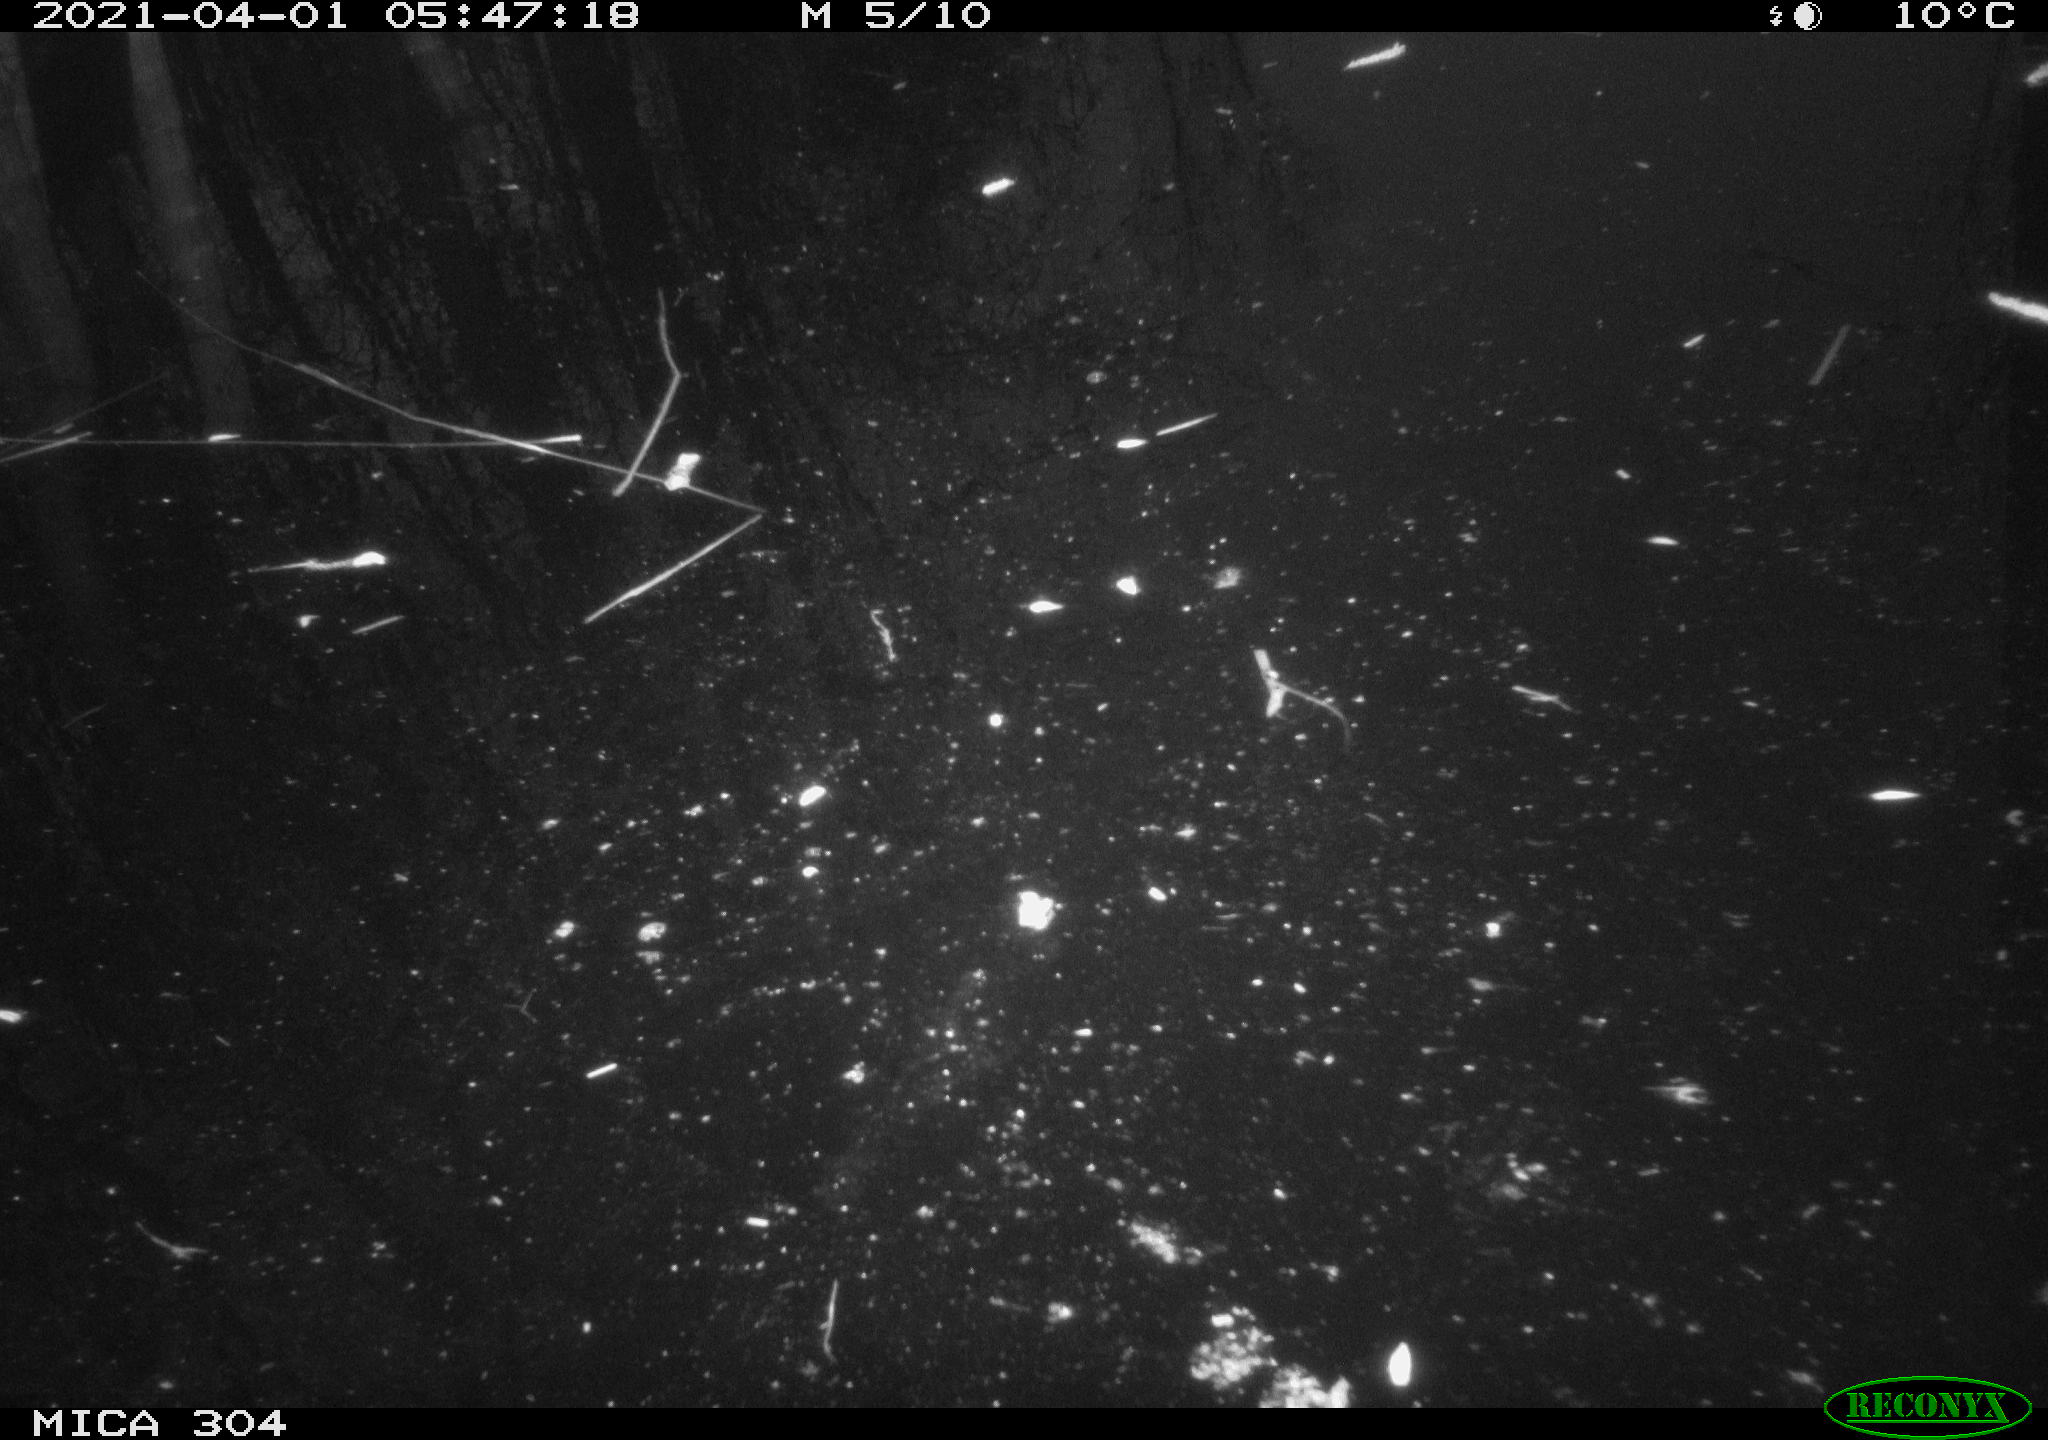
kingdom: Animalia
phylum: Chordata
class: Aves
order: Gruiformes
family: Rallidae
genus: Fulica
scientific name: Fulica atra
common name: Eurasian coot
